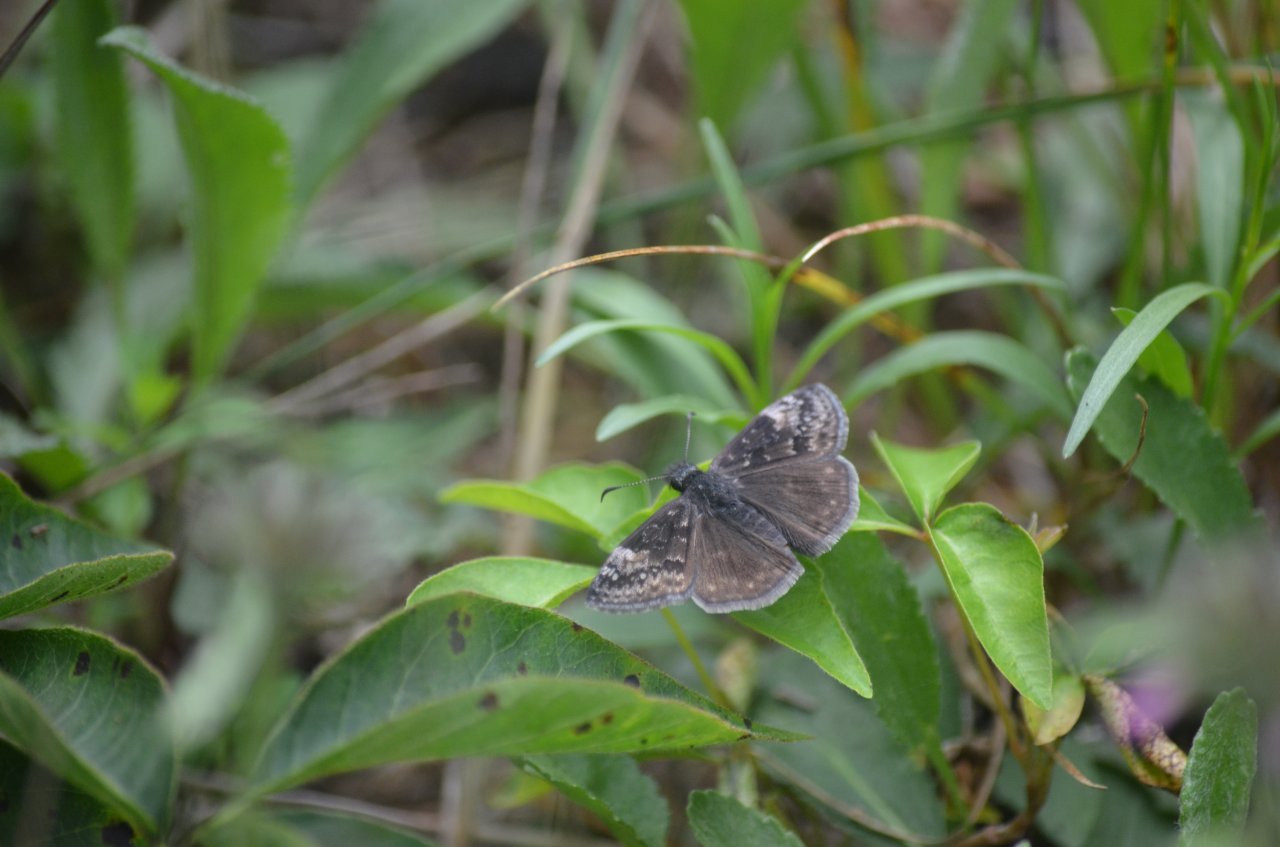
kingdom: Animalia
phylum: Arthropoda
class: Insecta
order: Lepidoptera
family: Hesperiidae
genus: Gesta
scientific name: Gesta
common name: Columbine Duskywing
